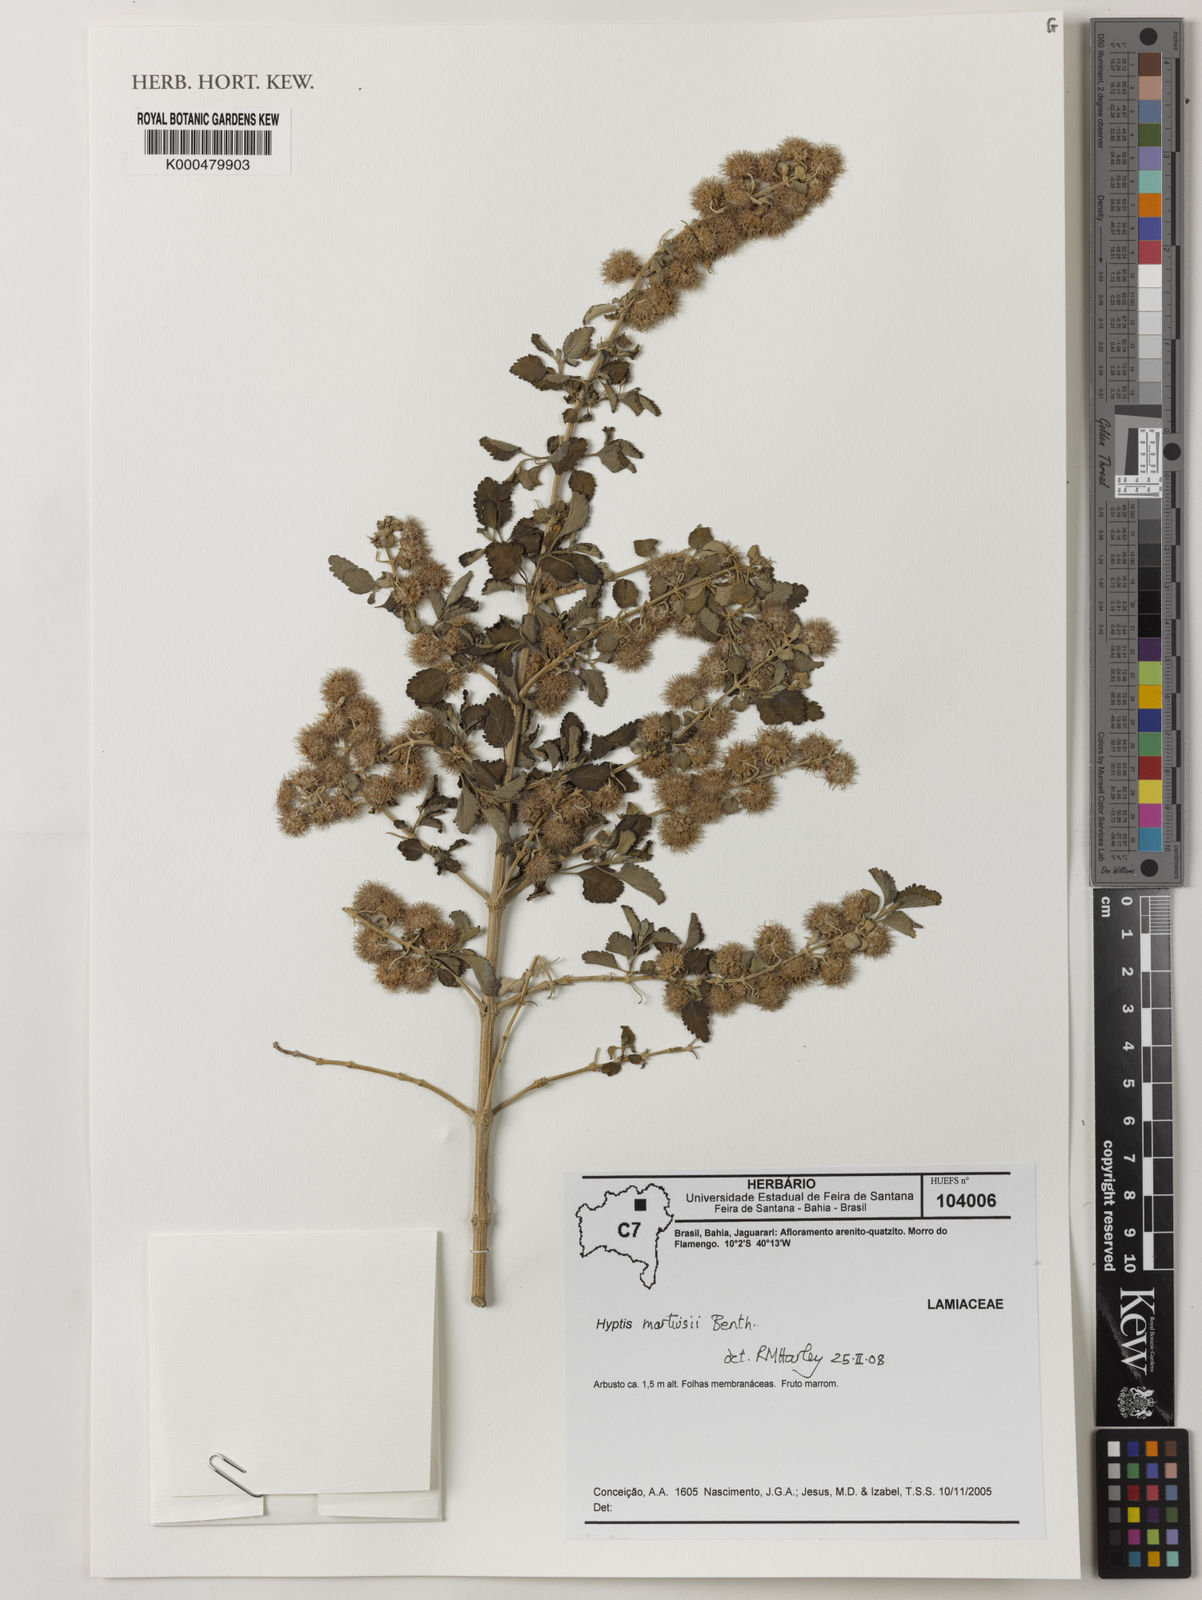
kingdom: Plantae
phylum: Tracheophyta
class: Magnoliopsida
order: Lamiales
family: Lamiaceae
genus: Medusantha
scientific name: Medusantha martiusii
